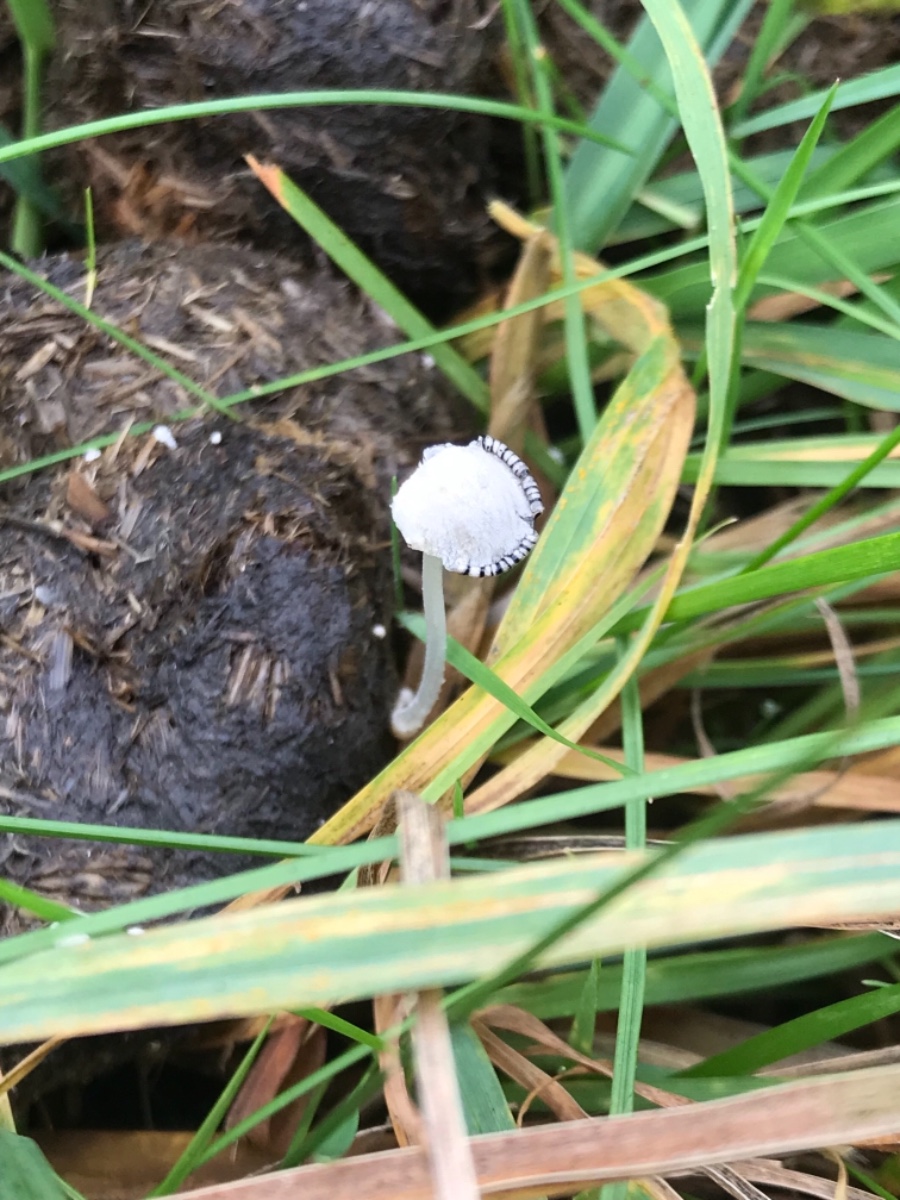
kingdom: Fungi
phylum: Basidiomycota
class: Agaricomycetes
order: Agaricales
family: Psathyrellaceae
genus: Coprinopsis
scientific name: Coprinopsis nivea
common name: snehvid blækhat
